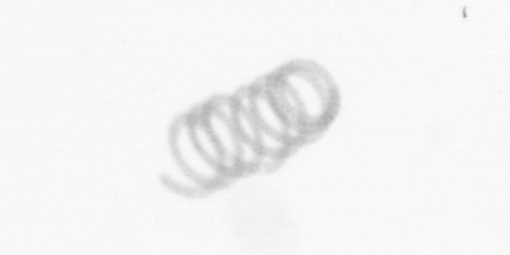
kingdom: Chromista
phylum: Ochrophyta
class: Bacillariophyceae
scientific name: Bacillariophyceae
